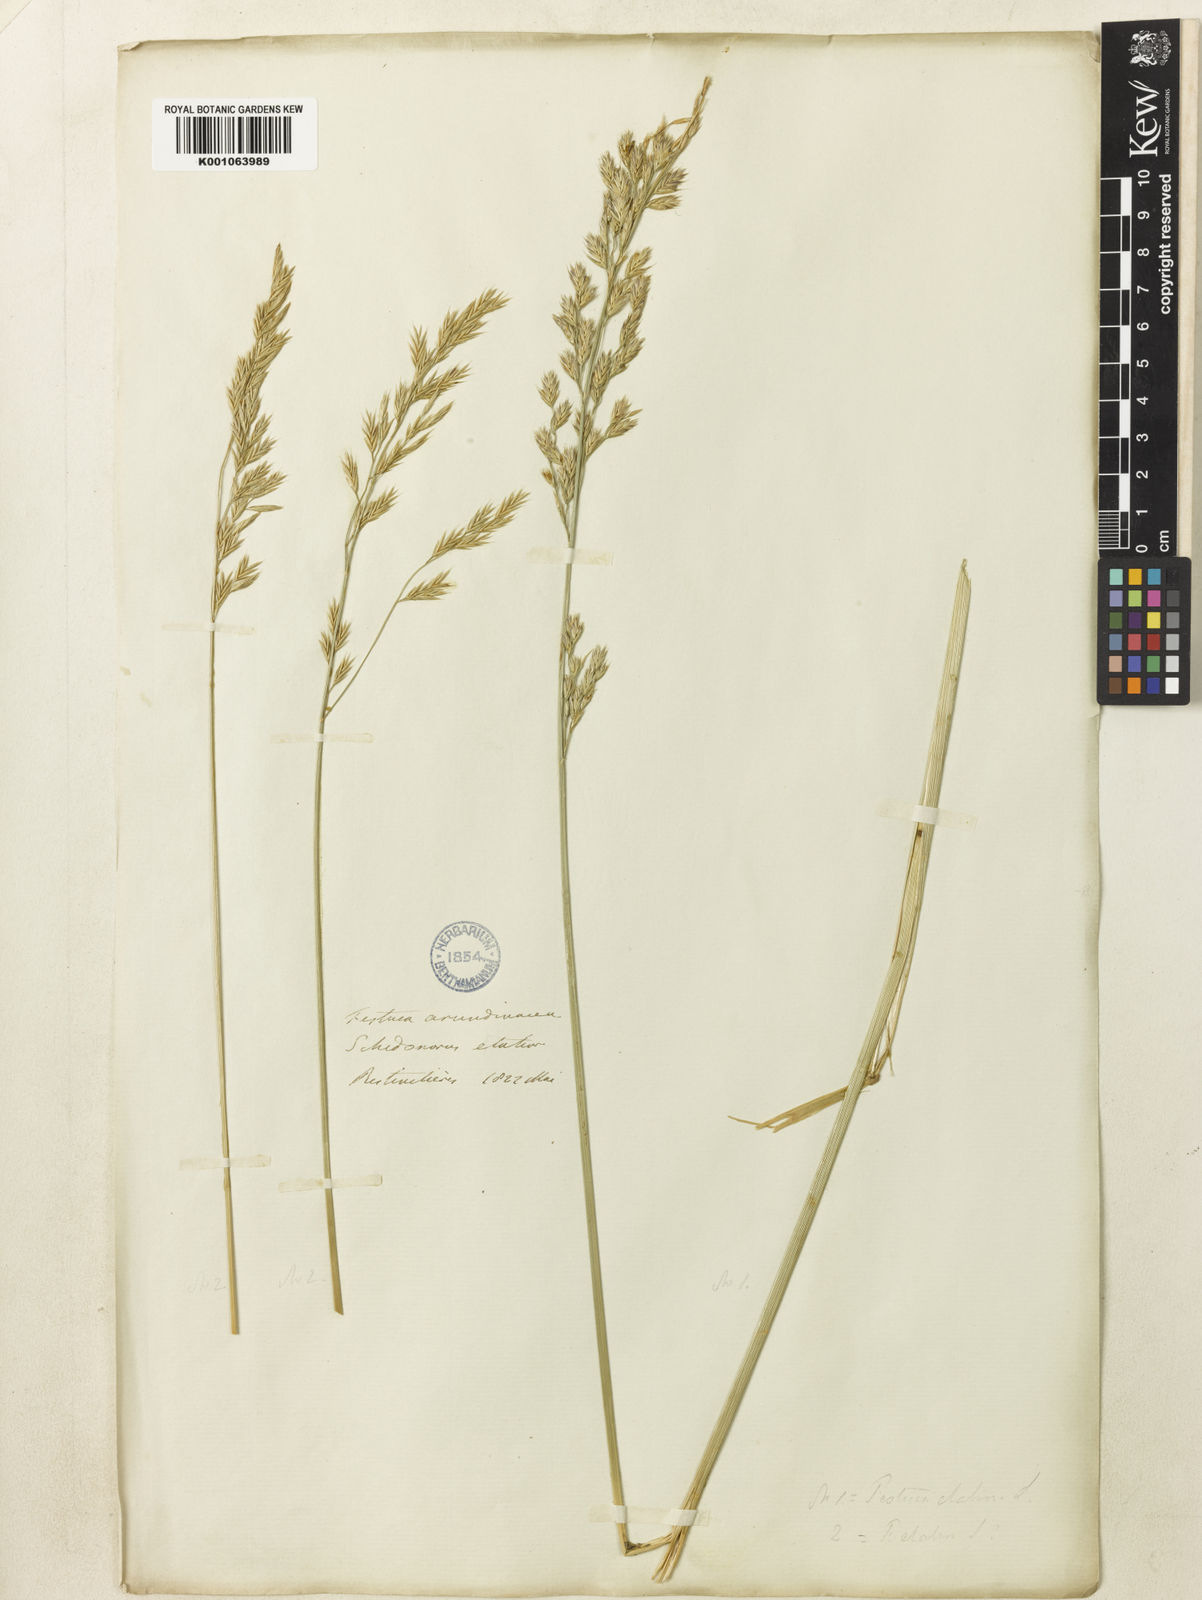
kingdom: Plantae
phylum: Tracheophyta
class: Liliopsida
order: Poales
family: Poaceae
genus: Lolium
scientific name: Lolium arundinaceum
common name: Reed fescue
